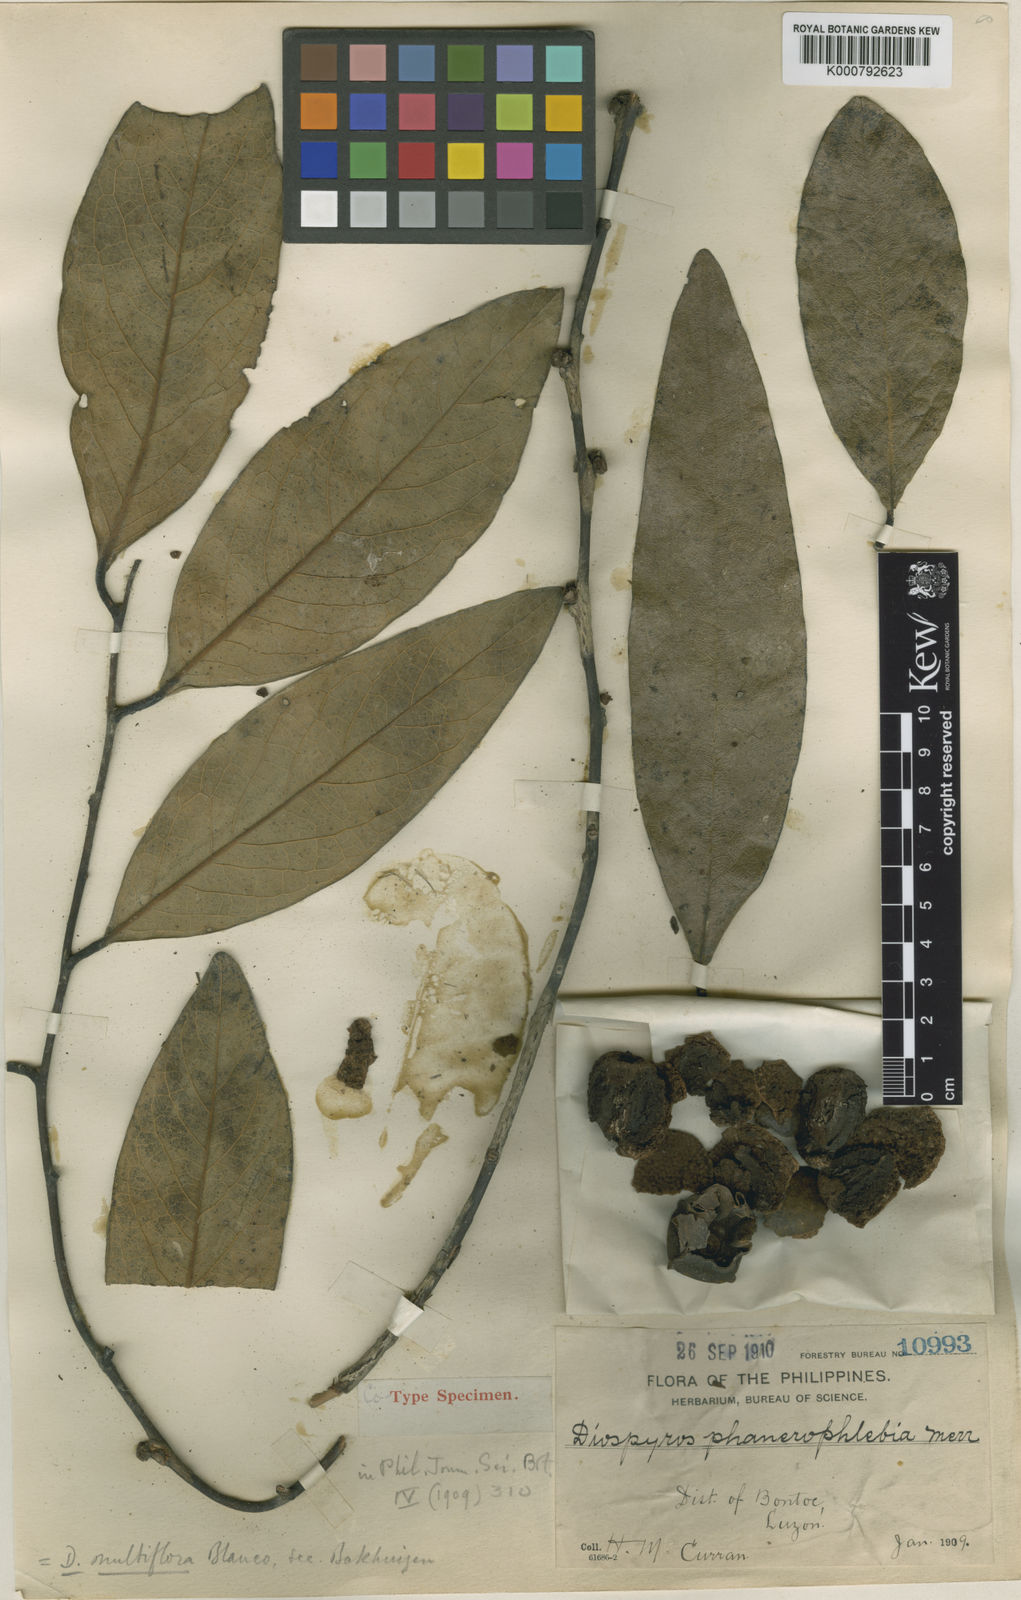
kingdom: Plantae
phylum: Tracheophyta
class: Magnoliopsida
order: Ericales
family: Ebenaceae
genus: Diospyros
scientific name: Diospyros multiflora
